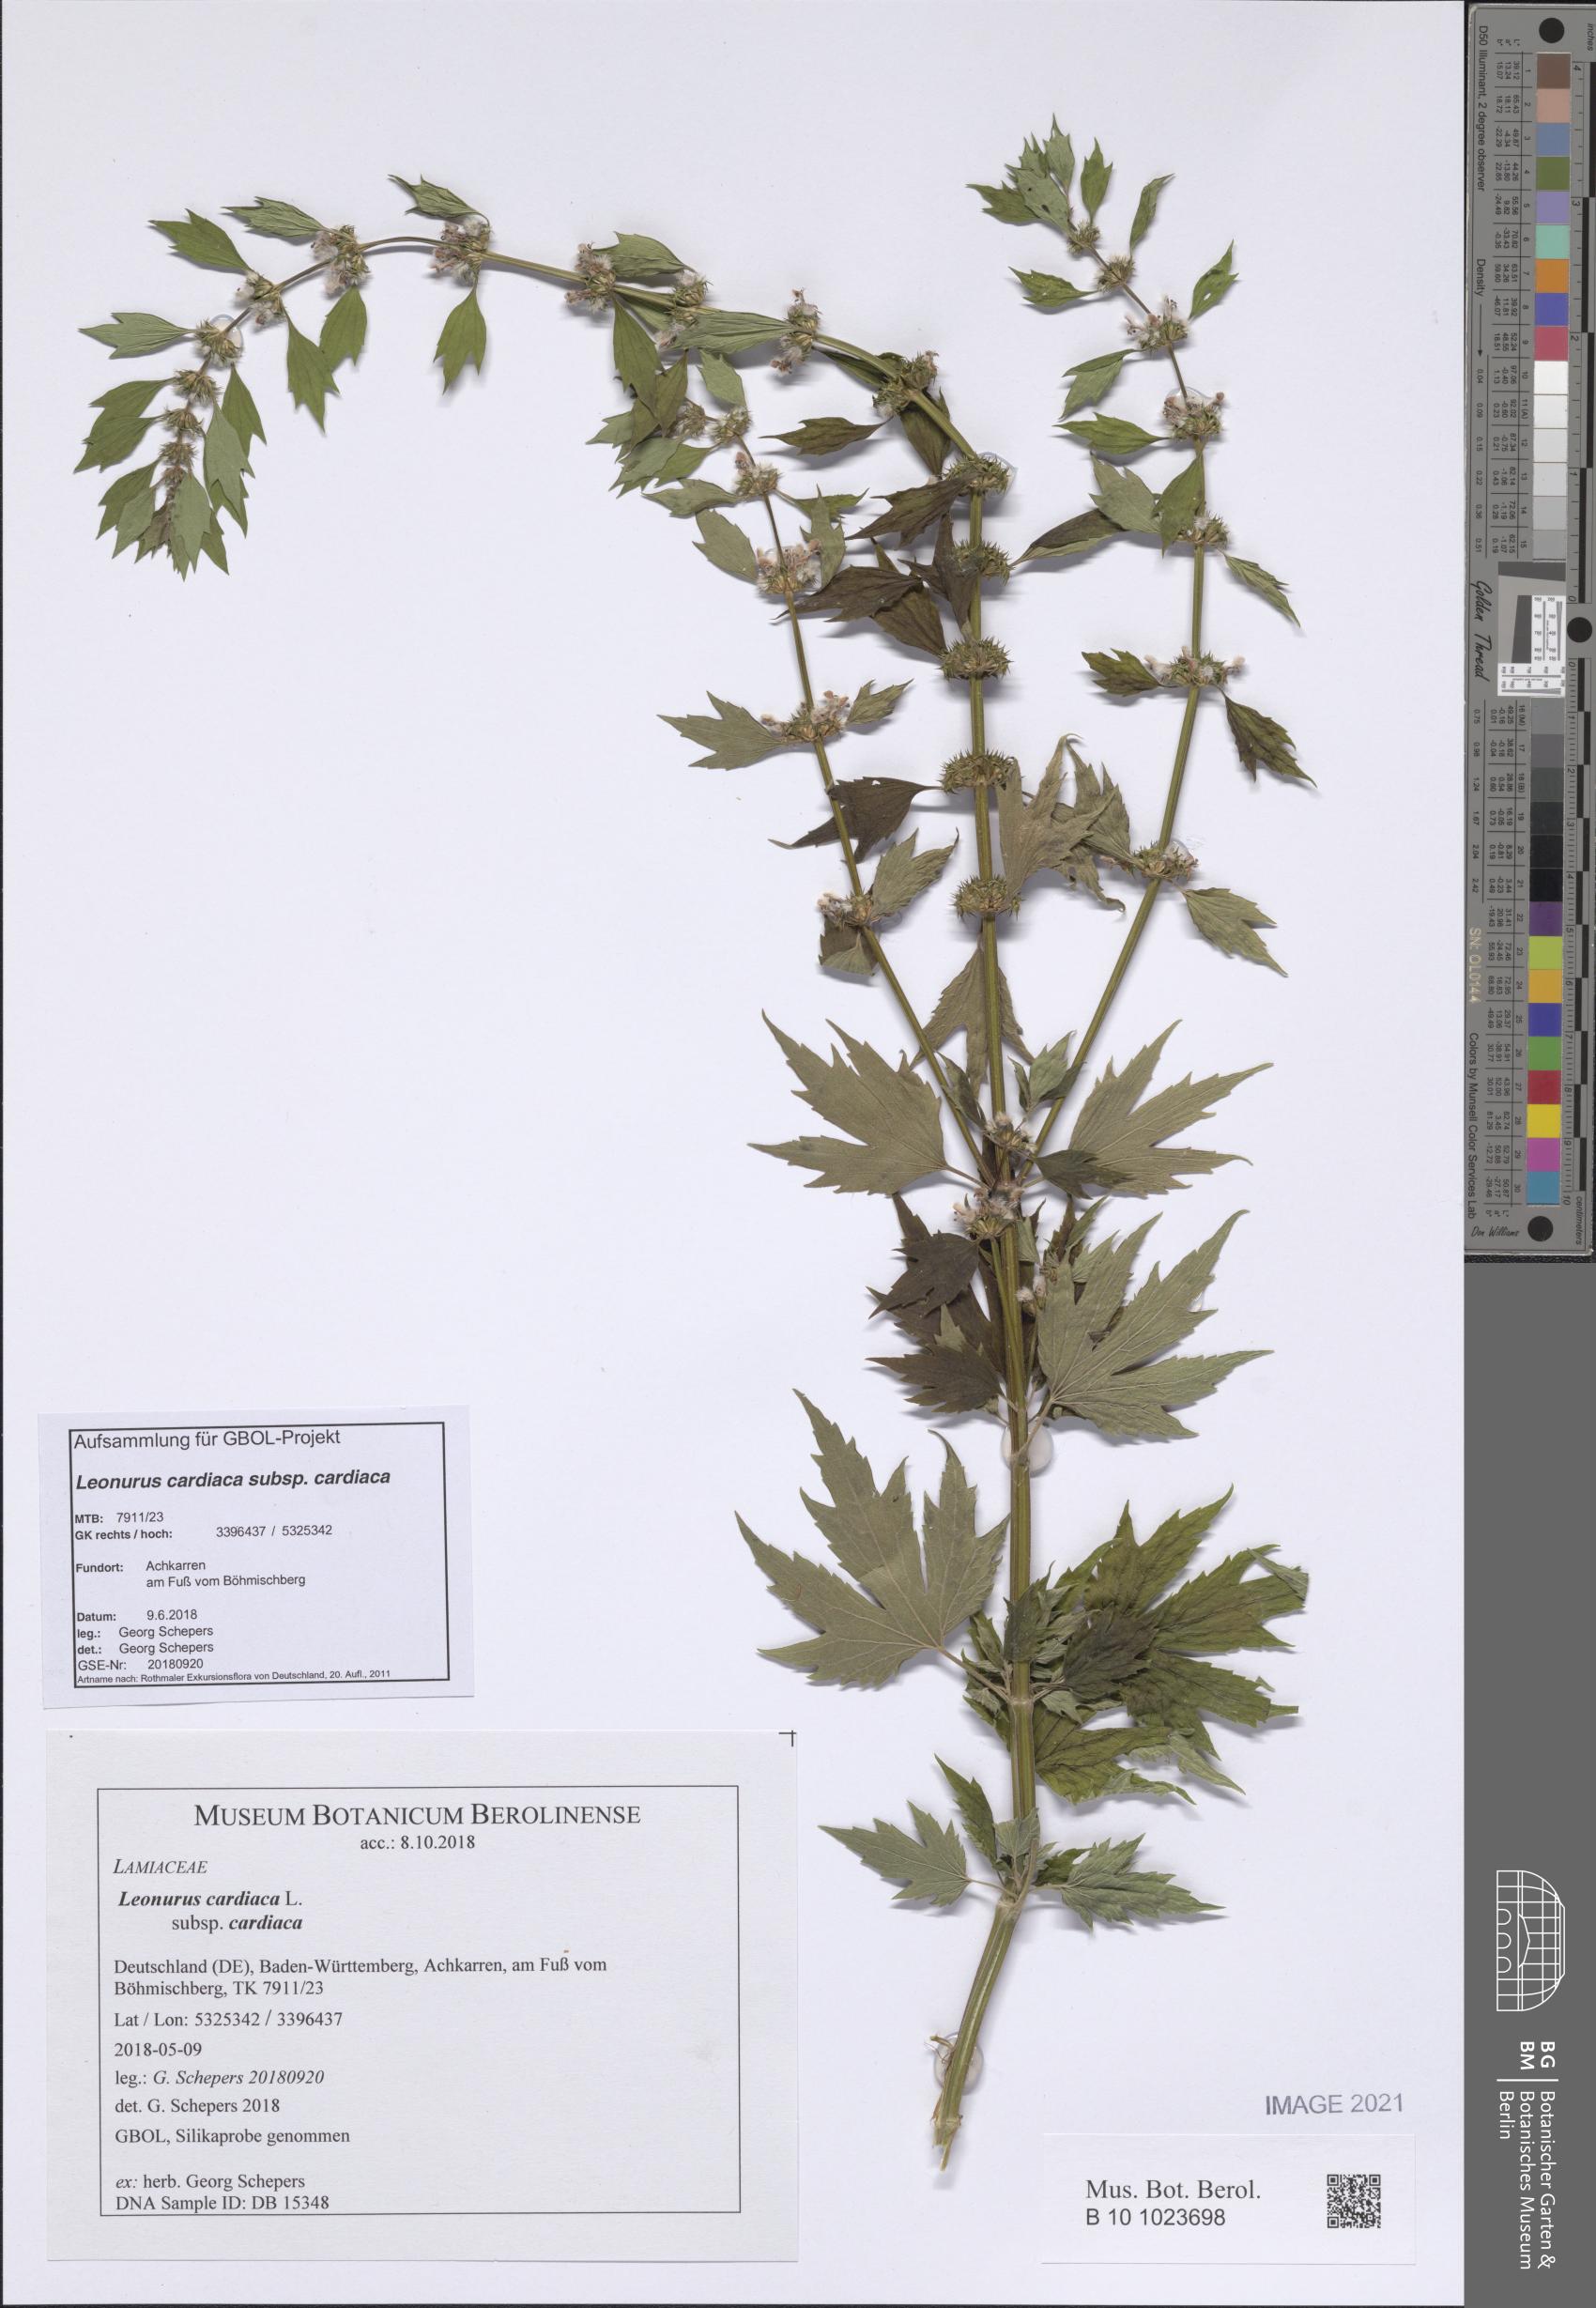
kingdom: Plantae
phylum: Tracheophyta
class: Magnoliopsida
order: Lamiales
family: Lamiaceae
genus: Leonurus
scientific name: Leonurus cardiaca
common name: Motherwort
